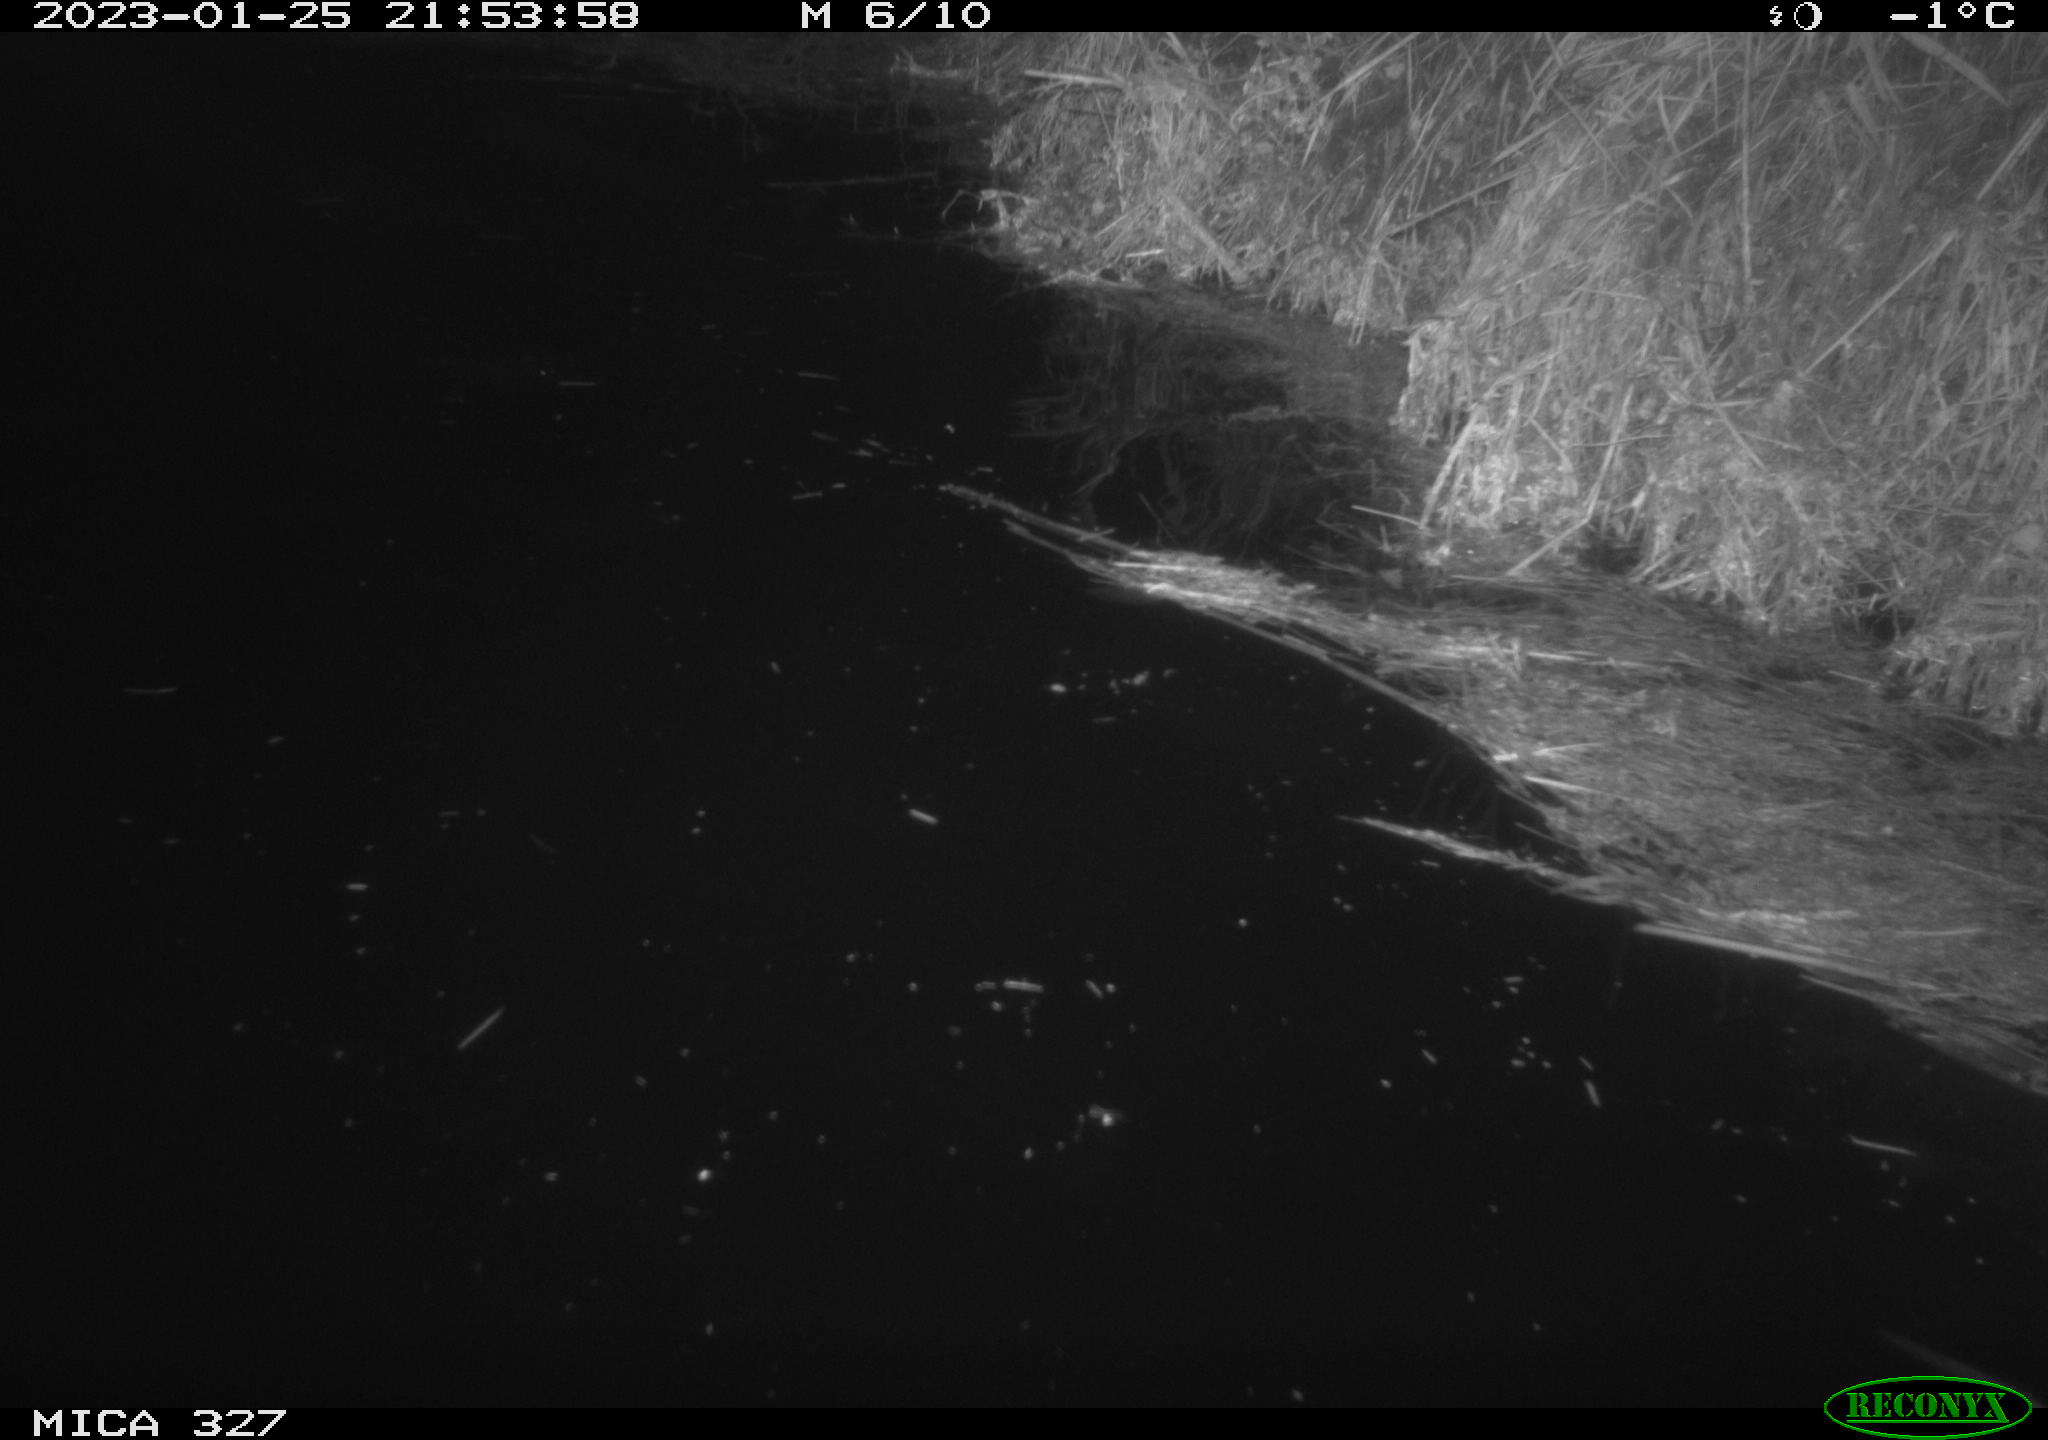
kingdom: Animalia
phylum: Chordata
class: Mammalia
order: Rodentia
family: Cricetidae
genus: Ondatra
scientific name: Ondatra zibethicus
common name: Muskrat
